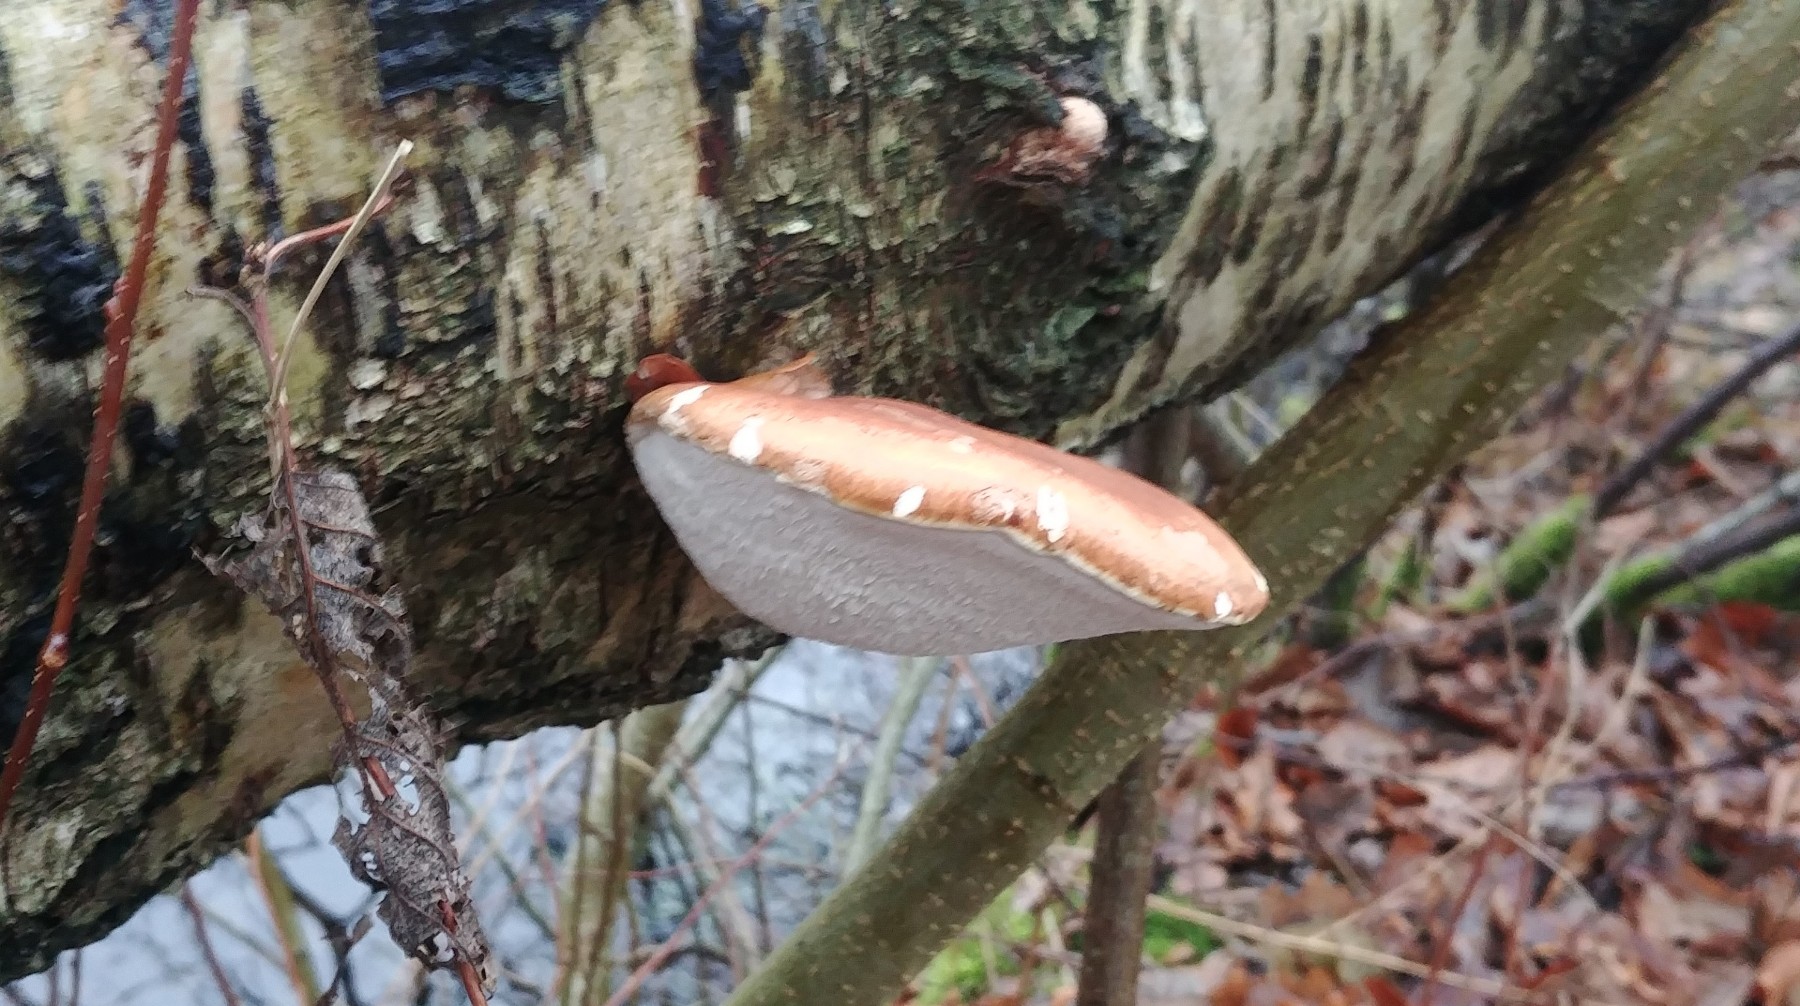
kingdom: Fungi
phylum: Basidiomycota
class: Agaricomycetes
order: Polyporales
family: Fomitopsidaceae
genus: Fomitopsis
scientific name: Fomitopsis betulina
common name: birkeporesvamp
